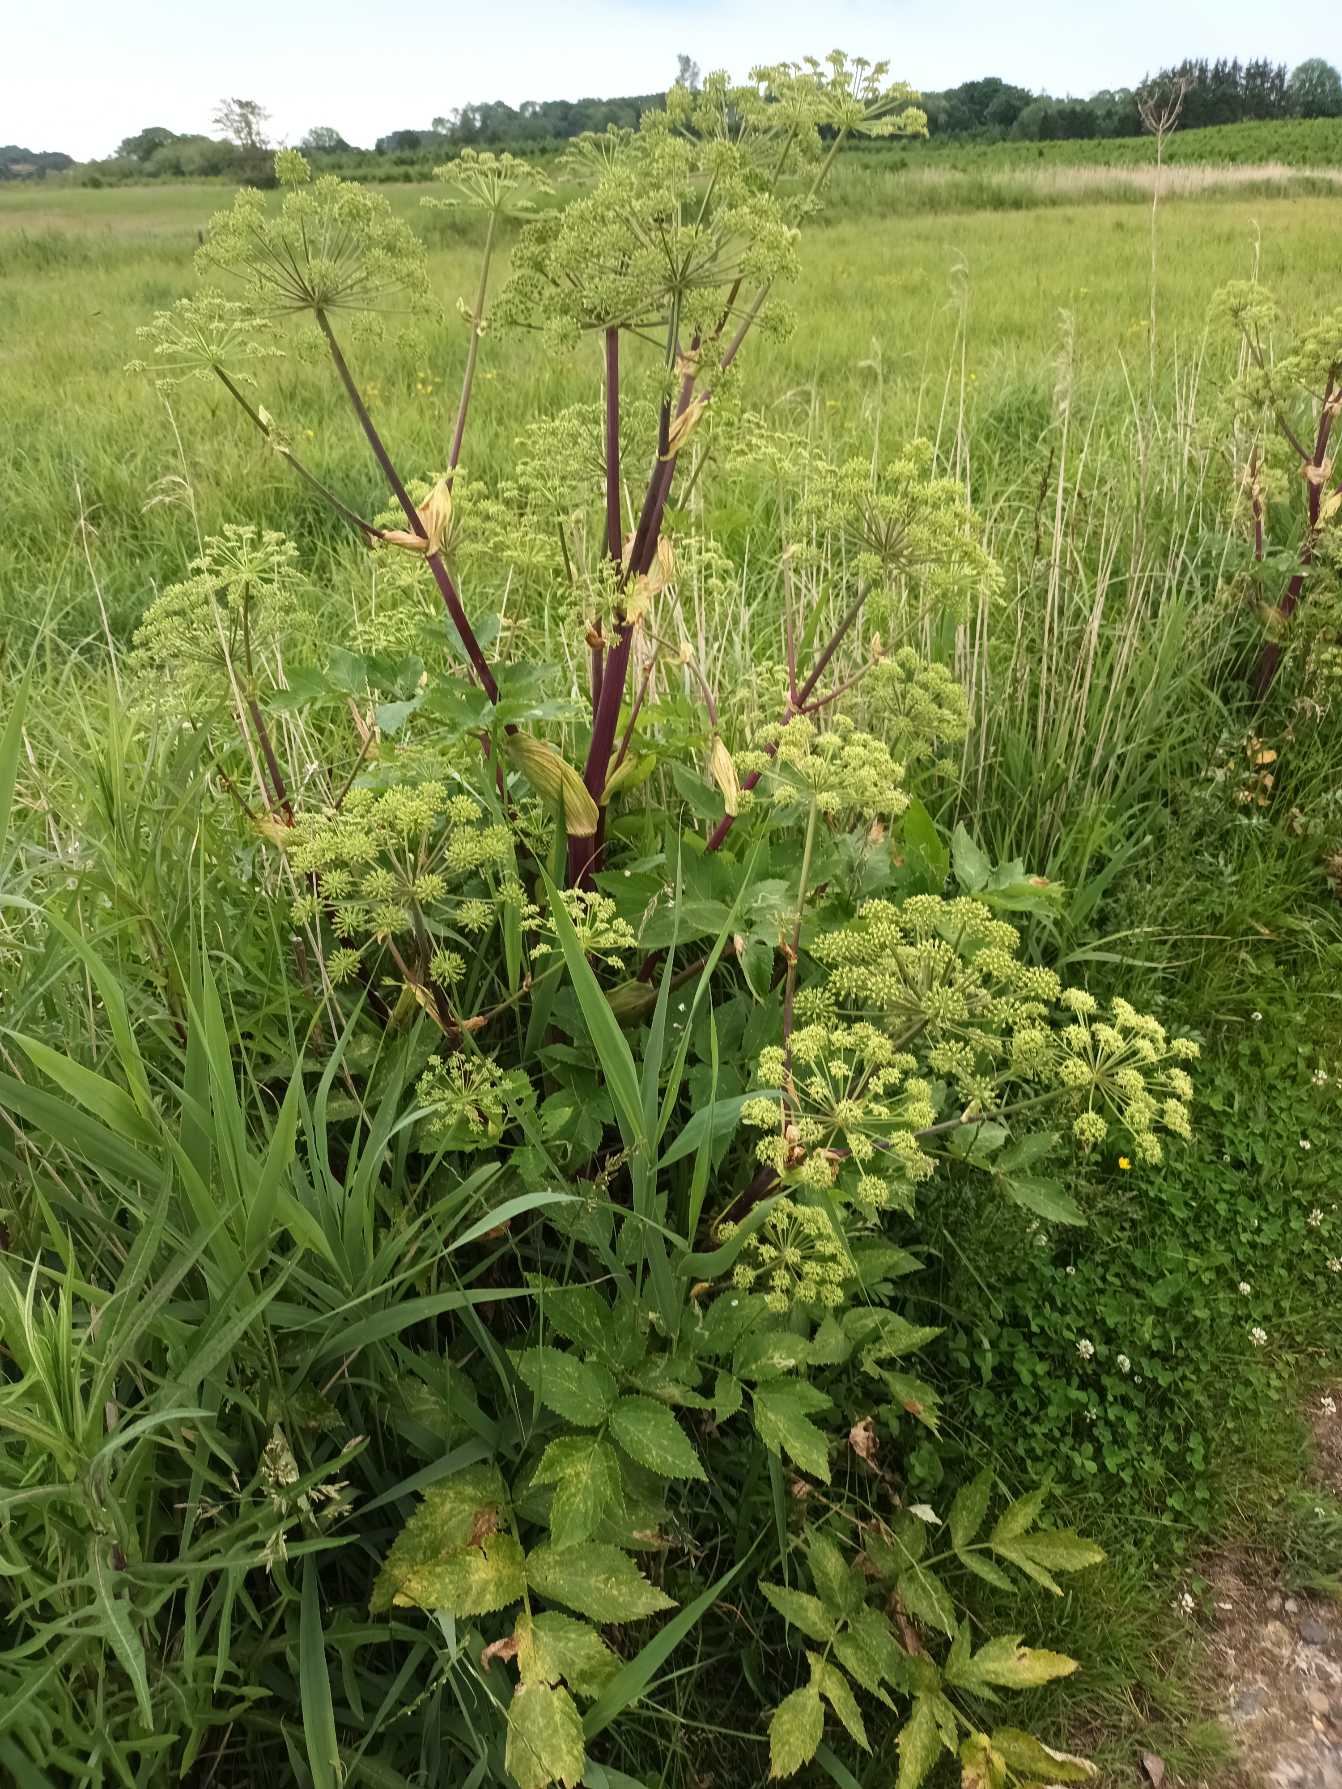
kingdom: Plantae
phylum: Tracheophyta
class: Magnoliopsida
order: Apiales
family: Apiaceae
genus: Angelica
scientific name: Angelica archangelica
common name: Strand-kvan
